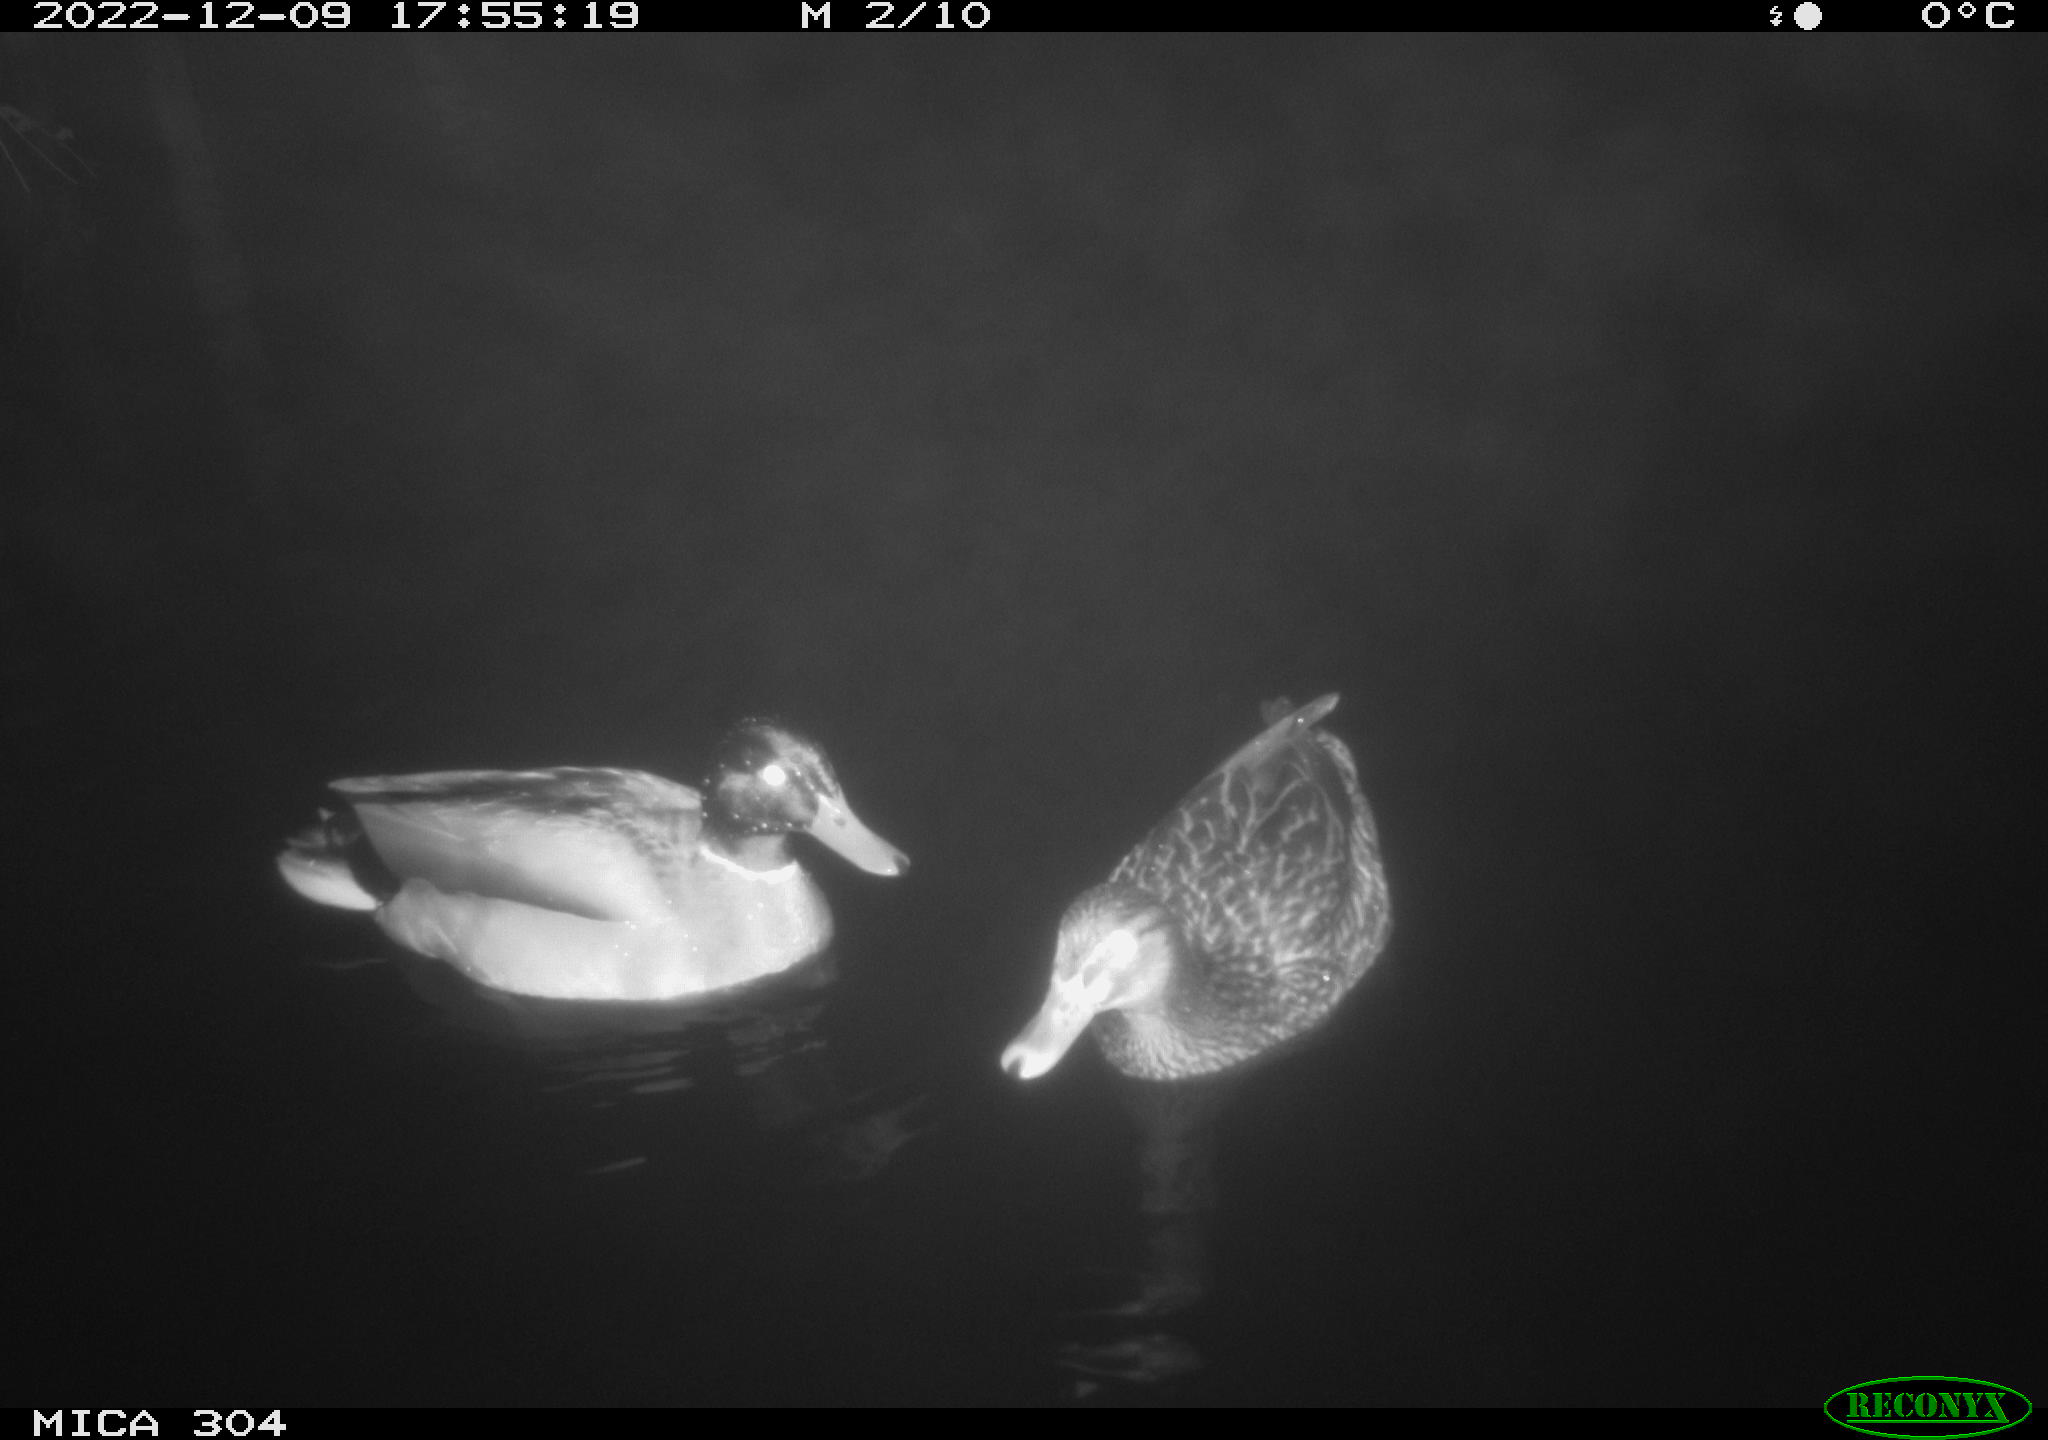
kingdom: Animalia
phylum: Chordata
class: Aves
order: Anseriformes
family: Anatidae
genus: Anas
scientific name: Anas
